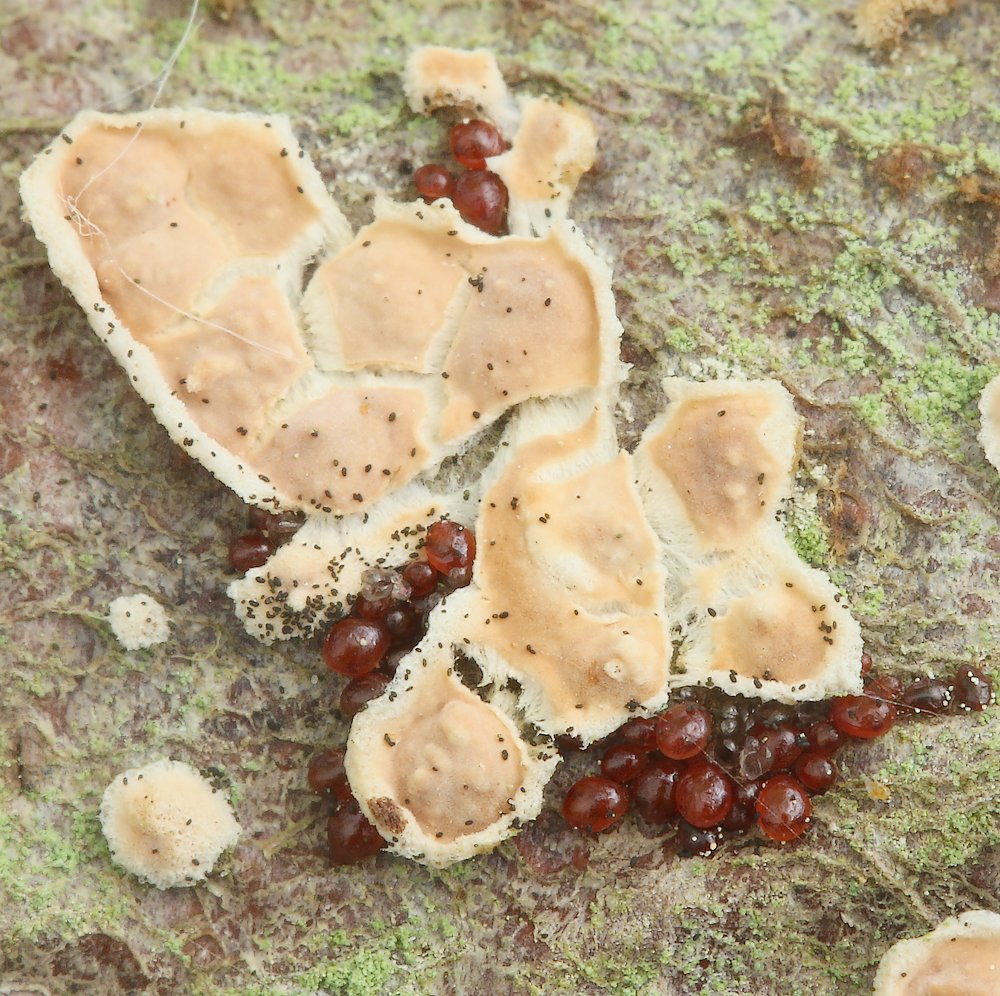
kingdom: Fungi
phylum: Ascomycota
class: Sordariomycetes
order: Hypocreales
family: Nectriaceae
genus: Neonectria
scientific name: Neonectria ditissima
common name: frugttræ-cinnobersvamp
